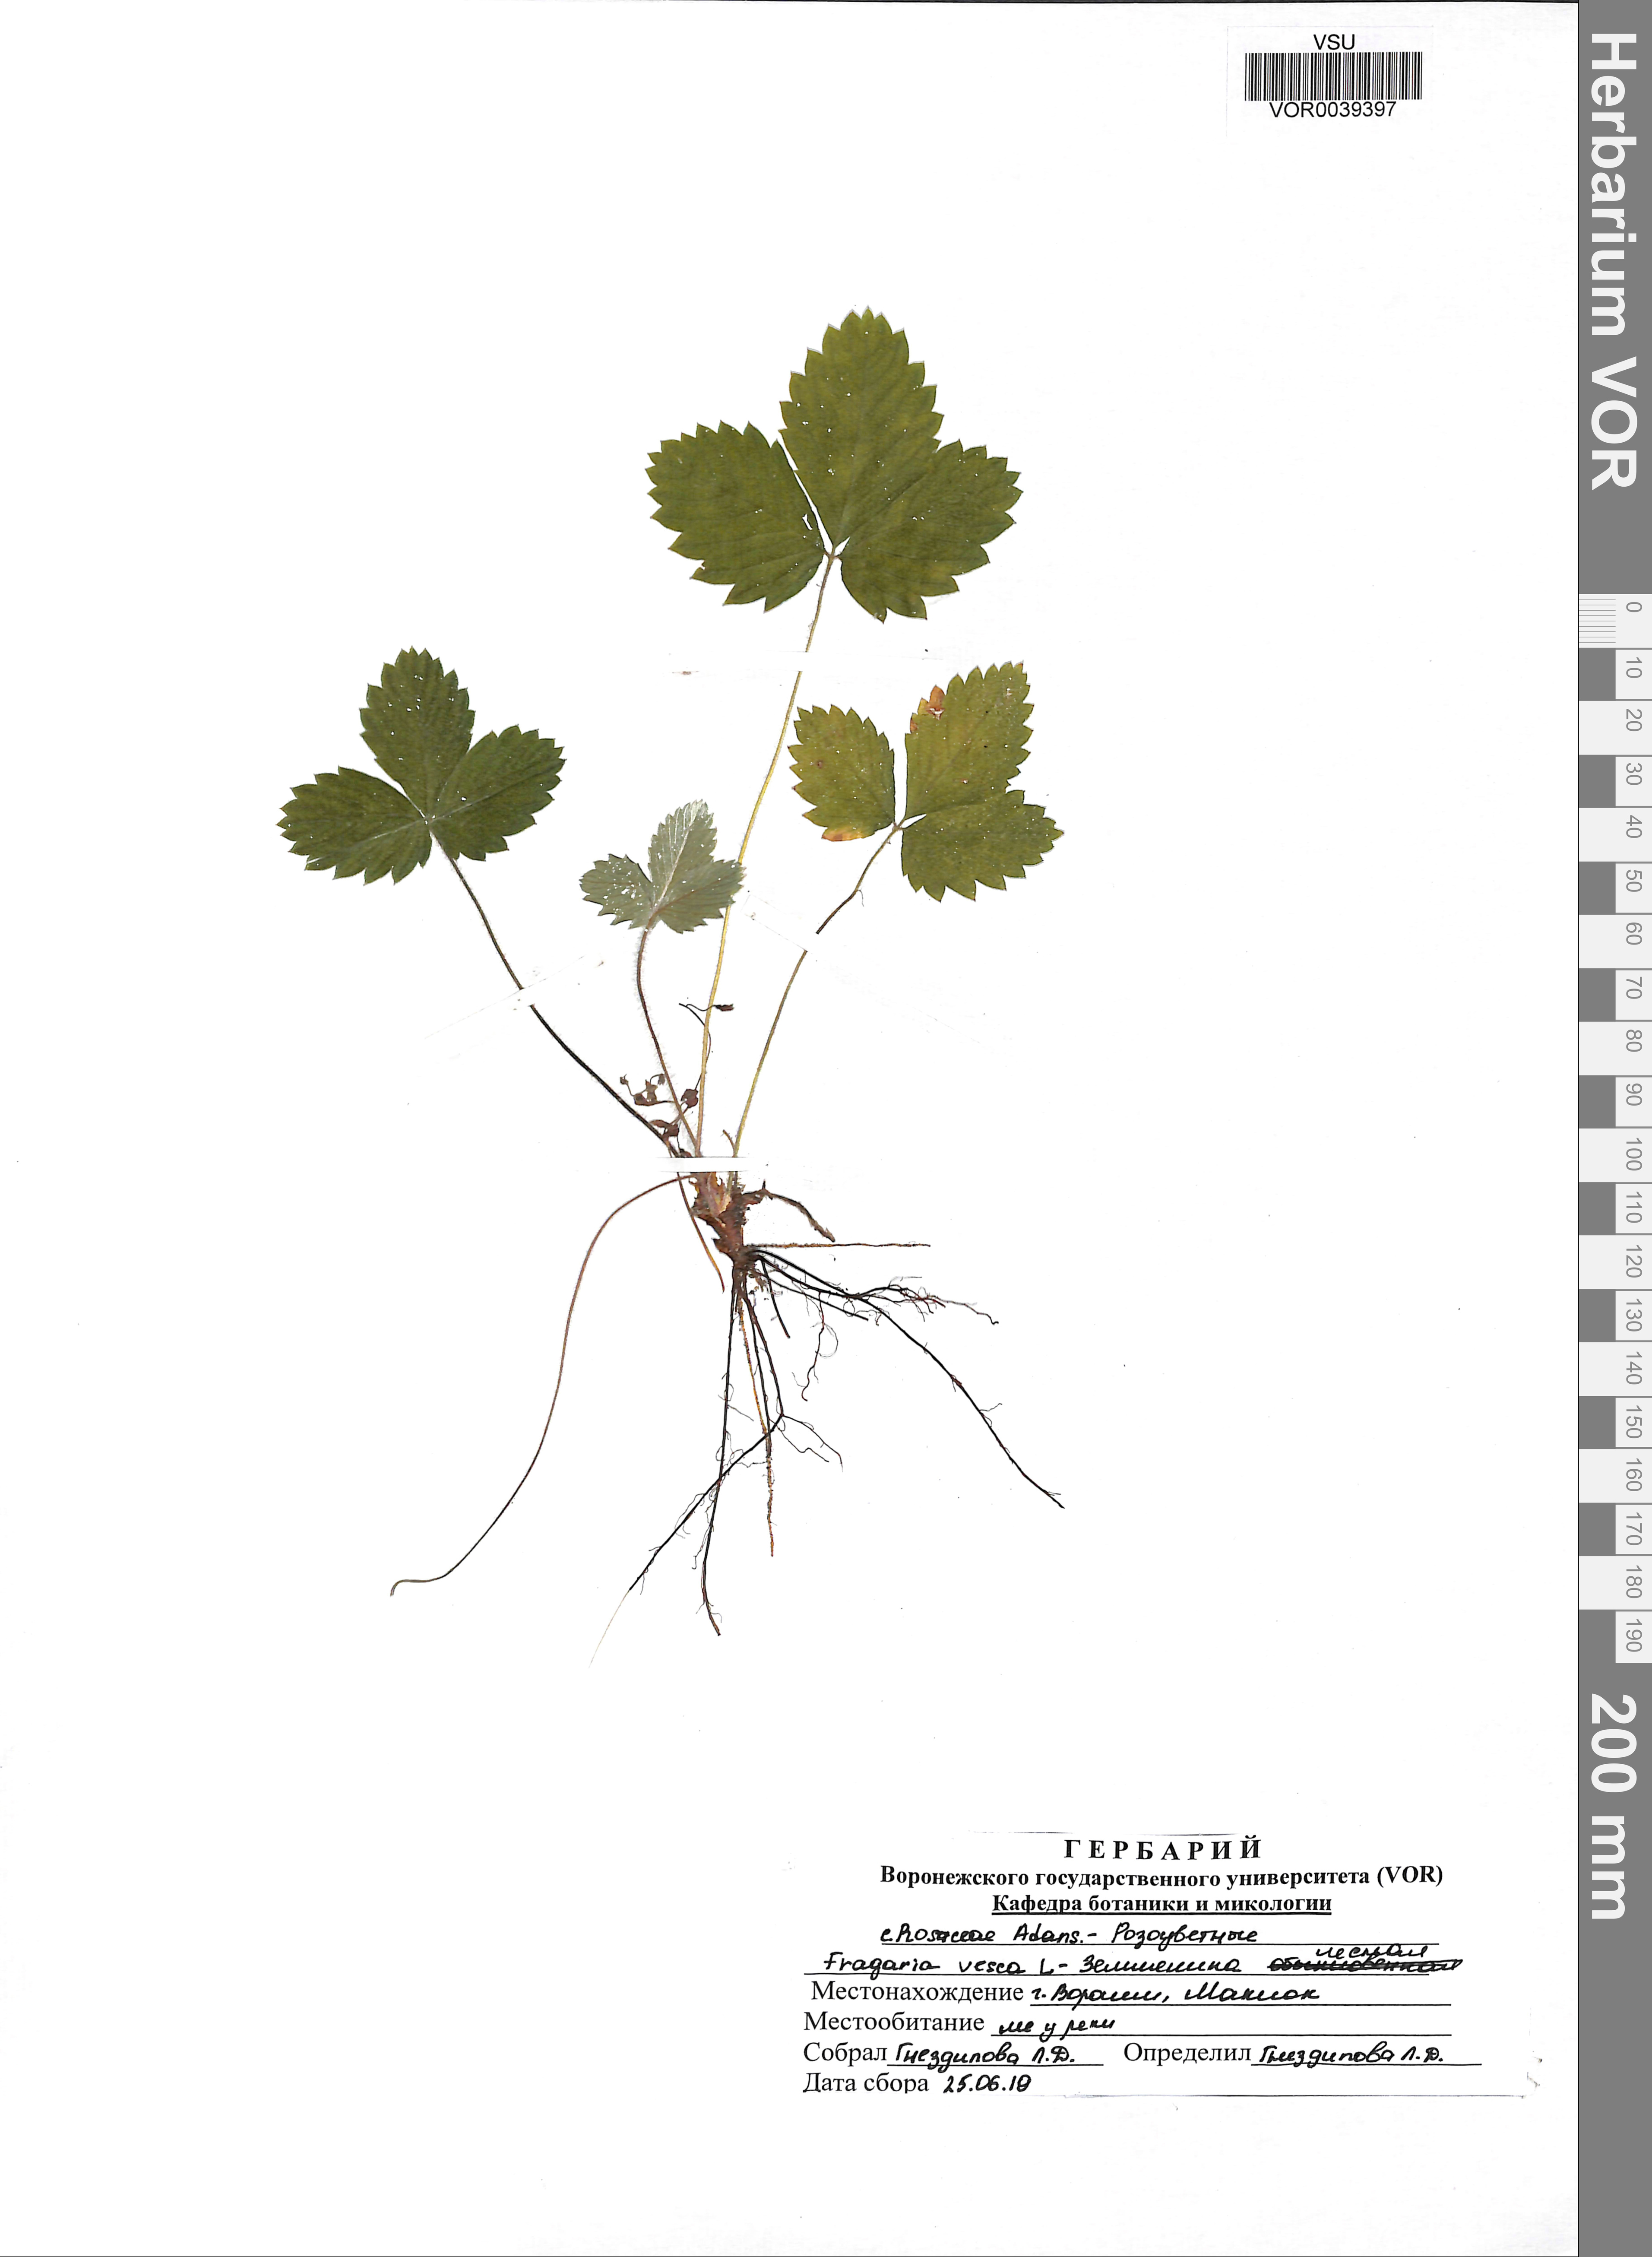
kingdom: Plantae
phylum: Tracheophyta
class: Magnoliopsida
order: Rosales
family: Rosaceae
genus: Fragaria
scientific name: Fragaria vesca
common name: Wild strawberry
